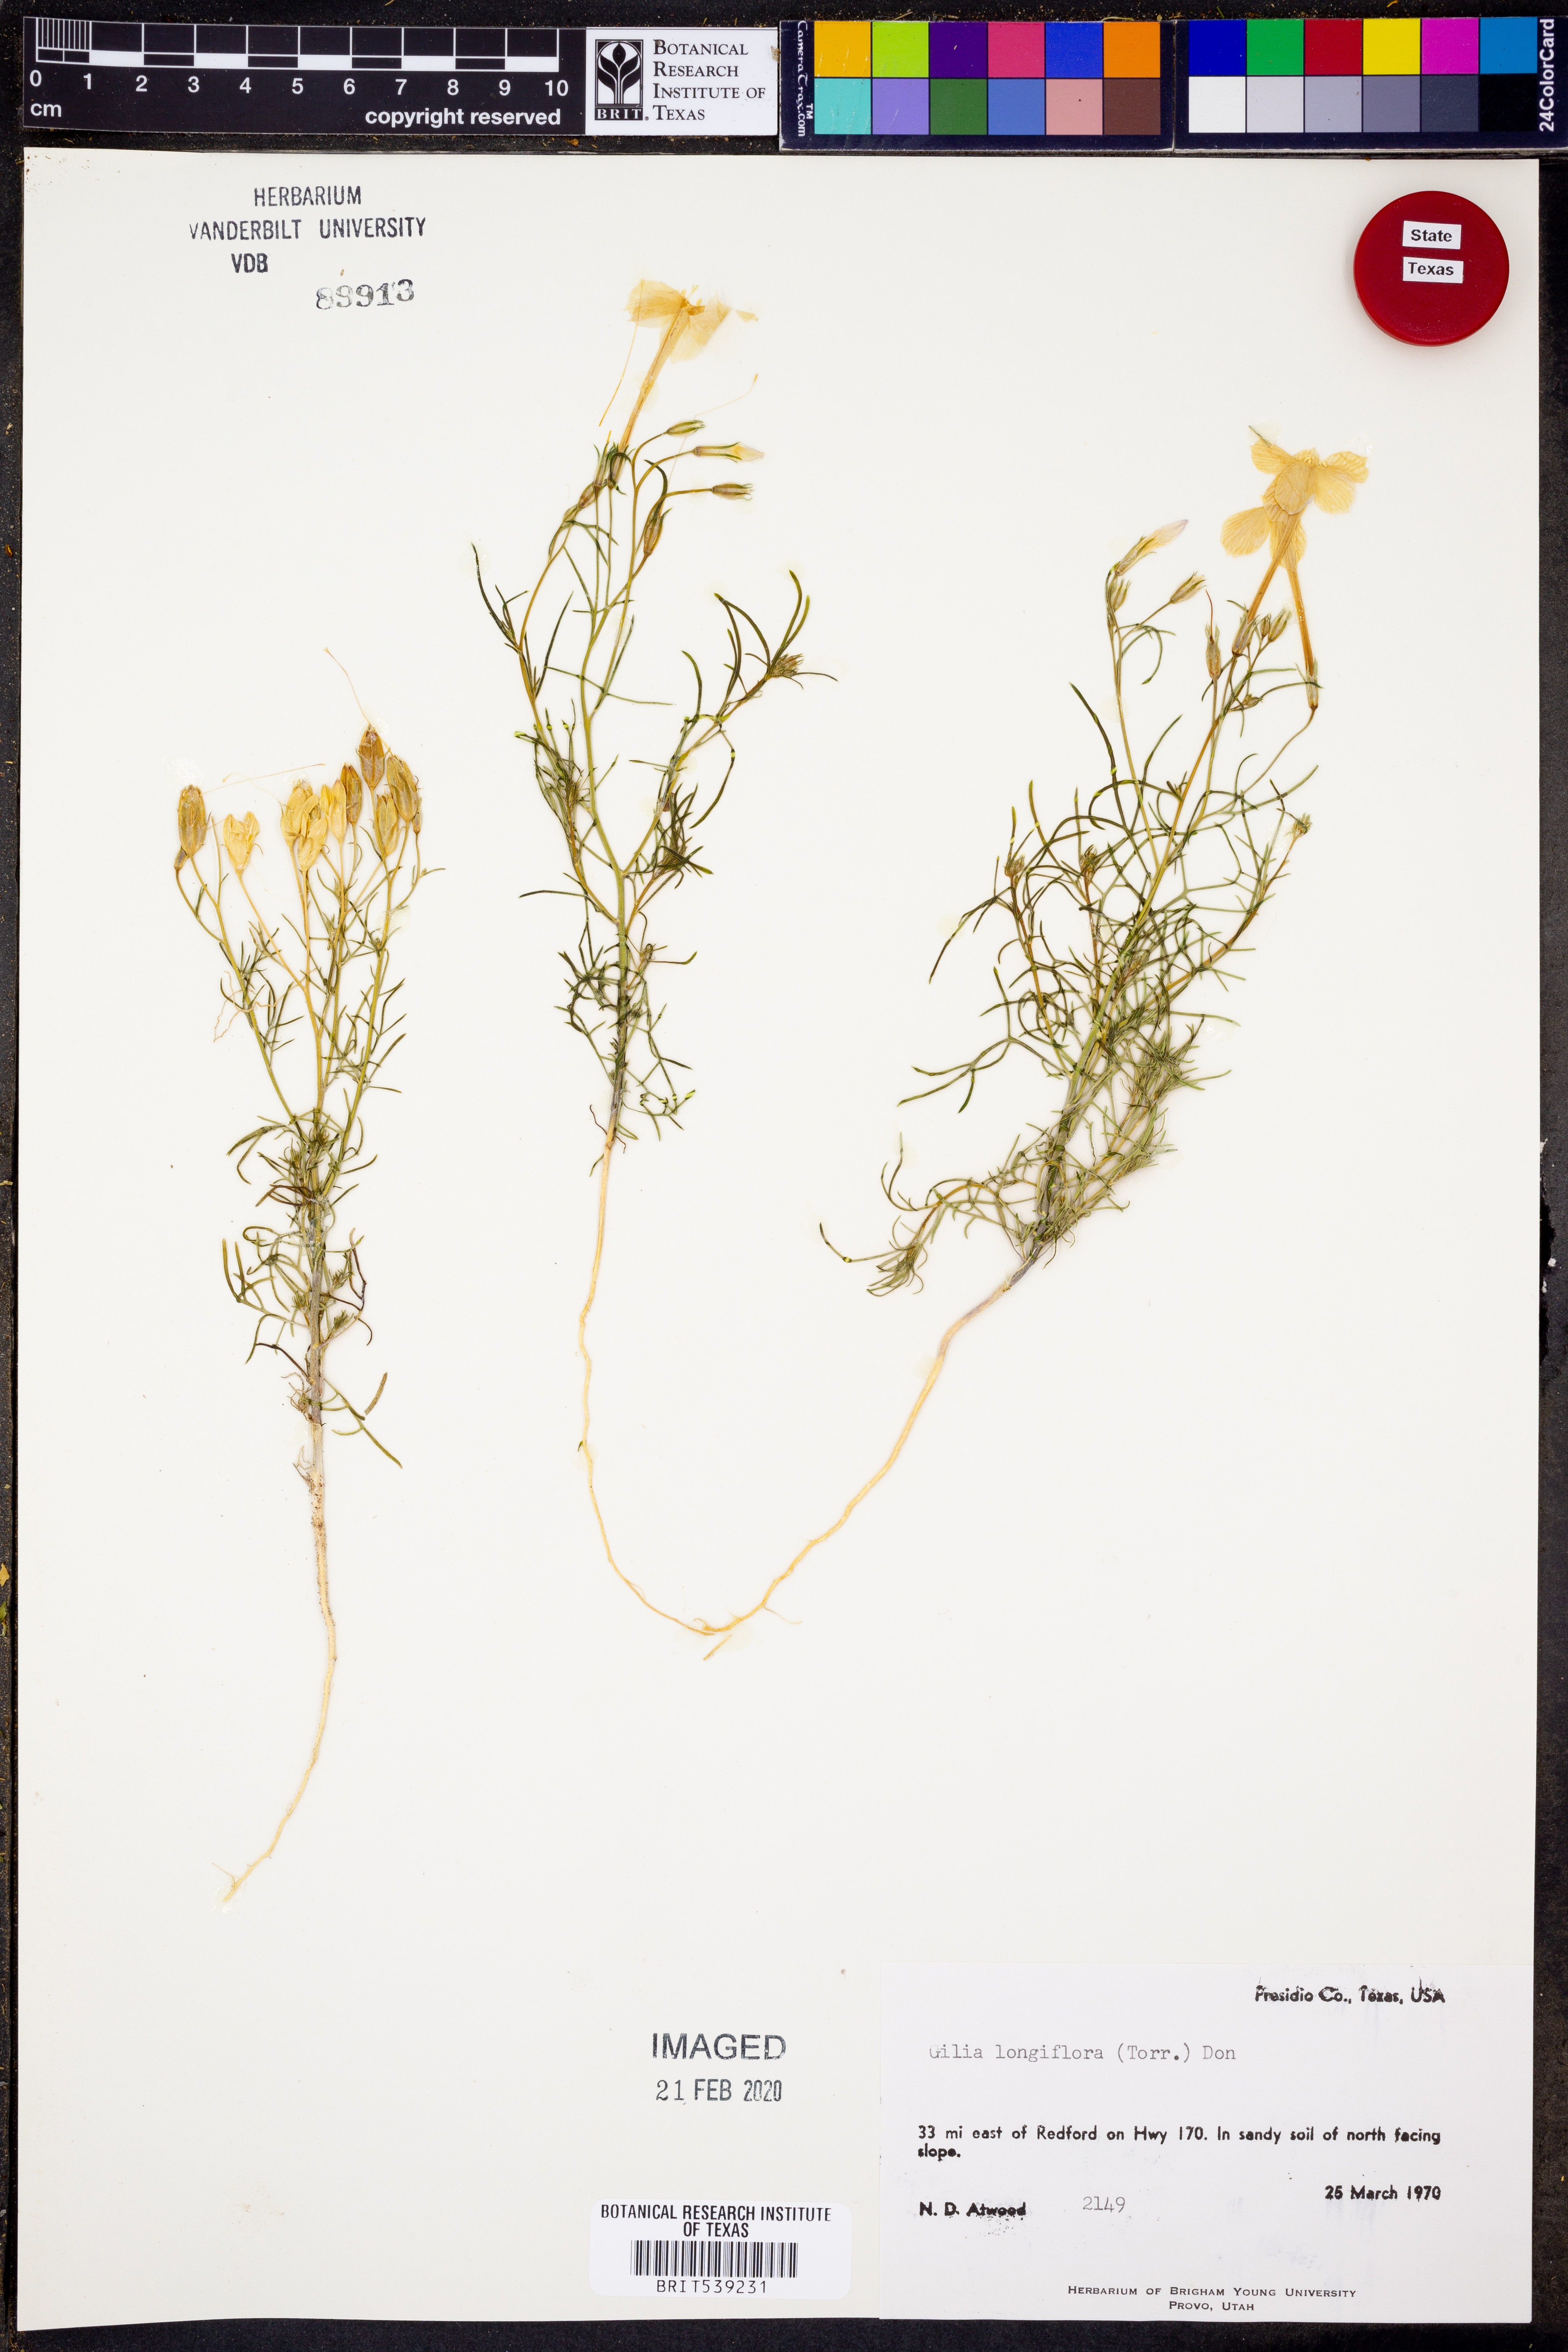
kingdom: Plantae
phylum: Tracheophyta
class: Magnoliopsida
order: Ericales
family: Polemoniaceae
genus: Ipomopsis
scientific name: Ipomopsis longiflora
